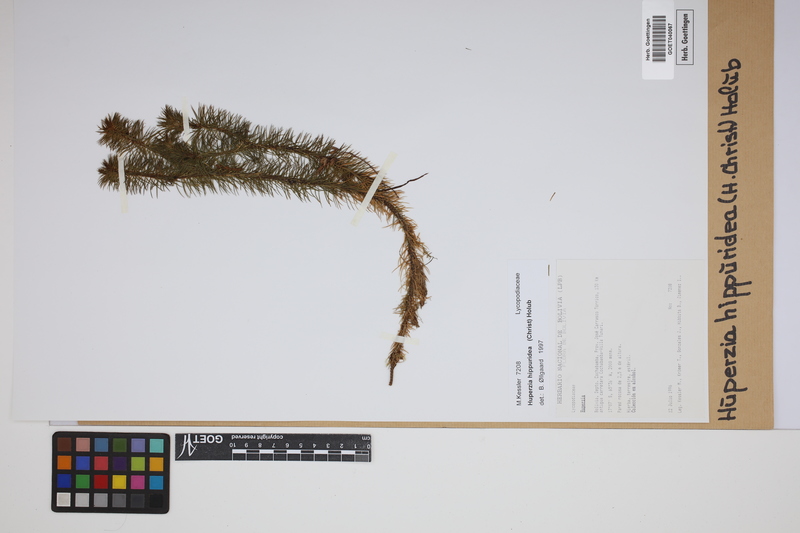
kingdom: Plantae
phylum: Tracheophyta
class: Lycopodiopsida
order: Lycopodiales
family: Lycopodiaceae
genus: Phlegmariurus
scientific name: Phlegmariurus hippurideus
